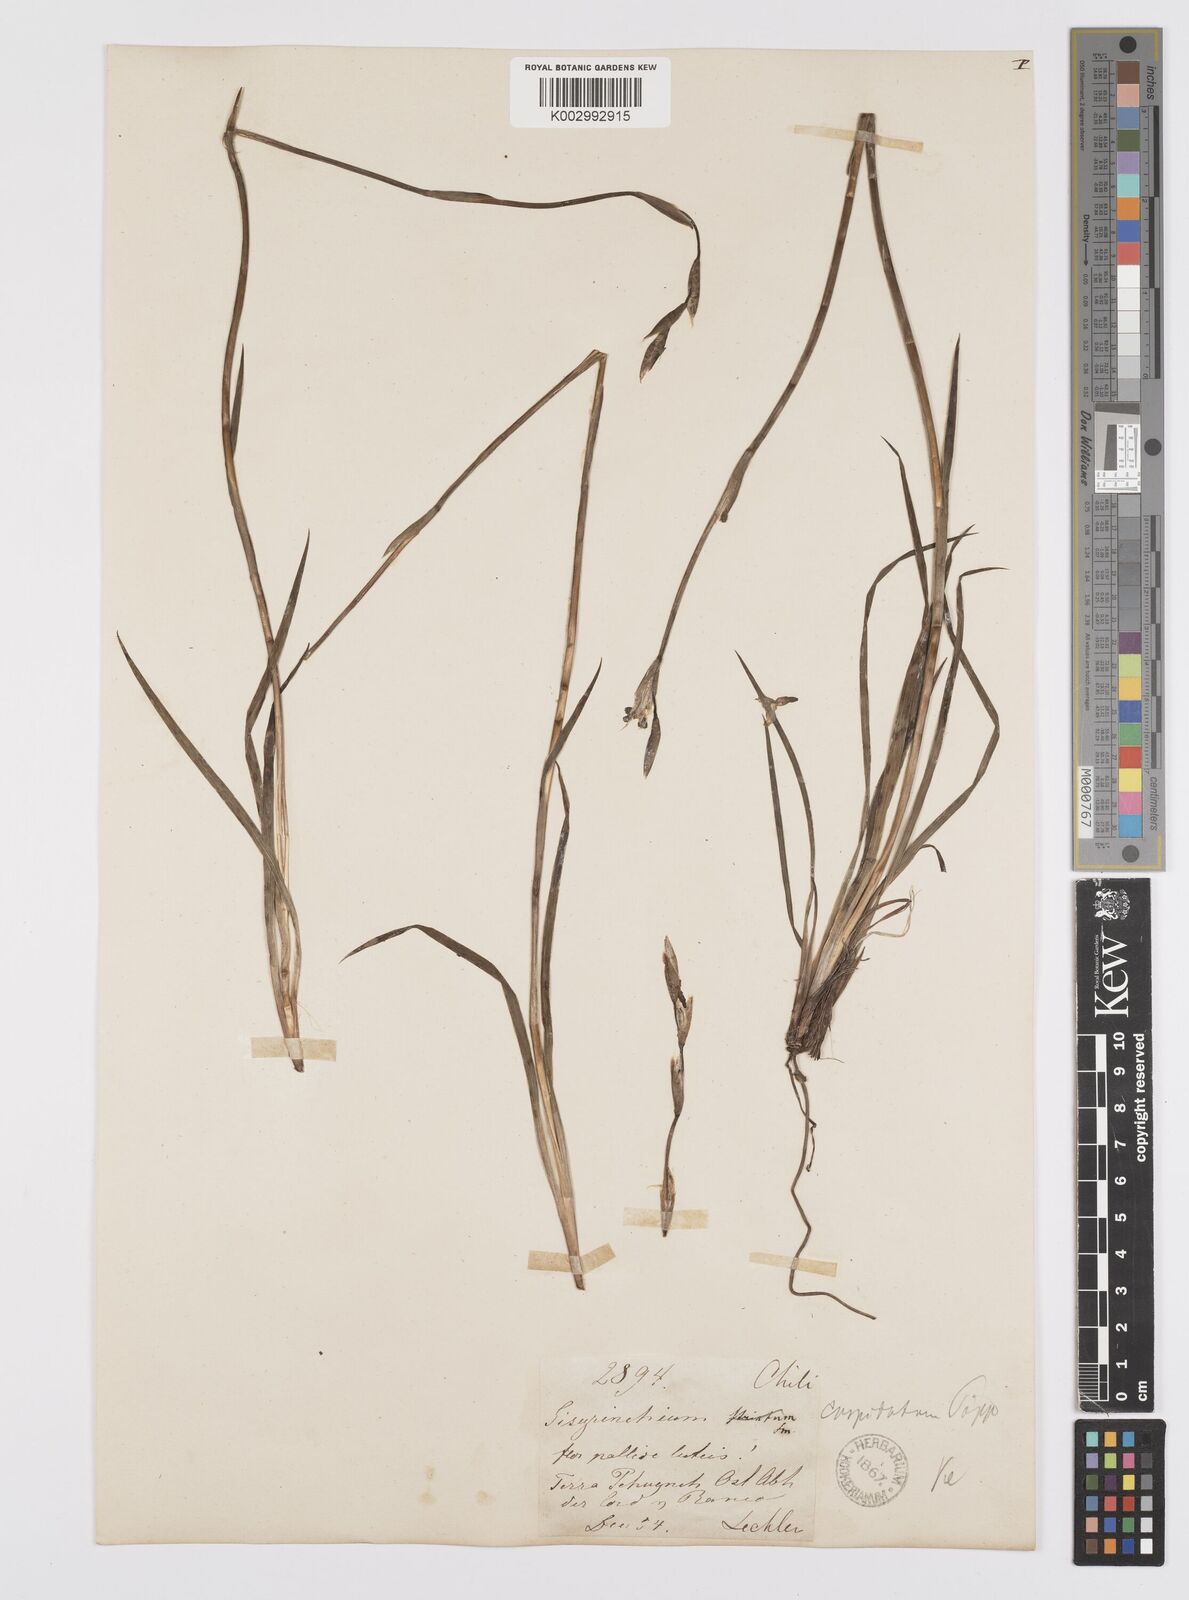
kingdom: Plantae
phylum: Tracheophyta
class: Liliopsida
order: Asparagales
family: Iridaceae
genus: Sisyrinchium
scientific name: Sisyrinchium cuspidatum
